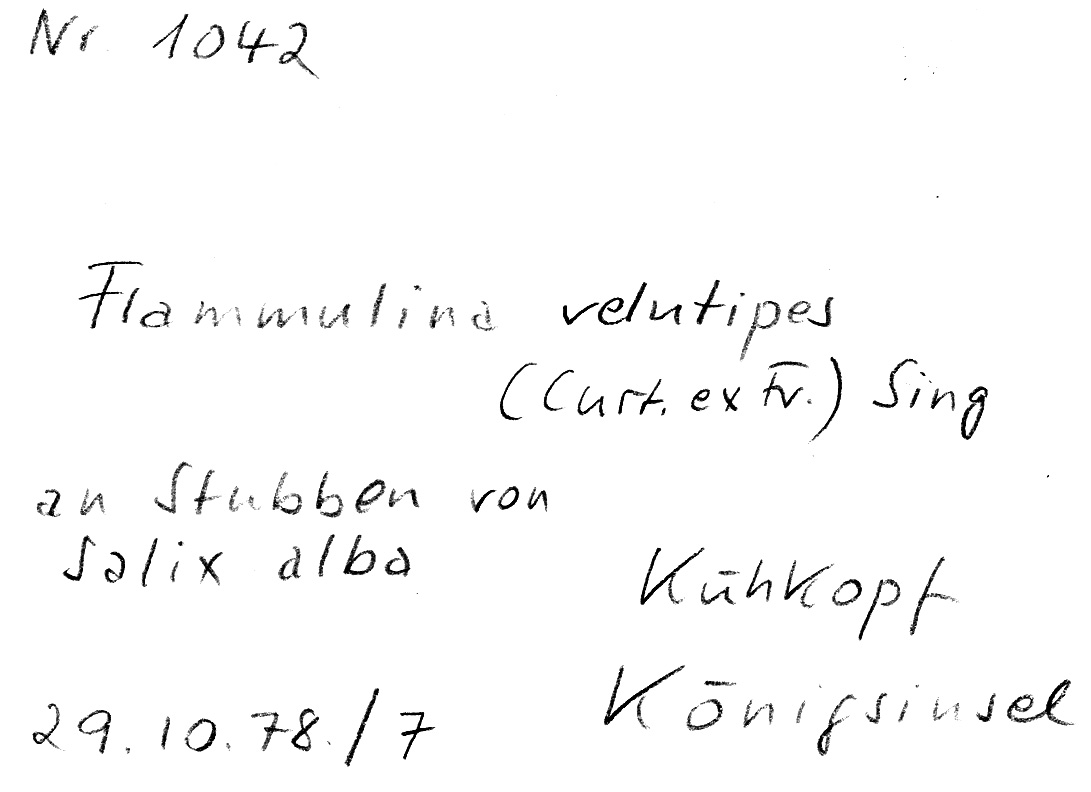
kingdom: Plantae
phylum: Tracheophyta
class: Magnoliopsida
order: Malpighiales
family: Salicaceae
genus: Salix
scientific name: Salix alba
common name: White willow
